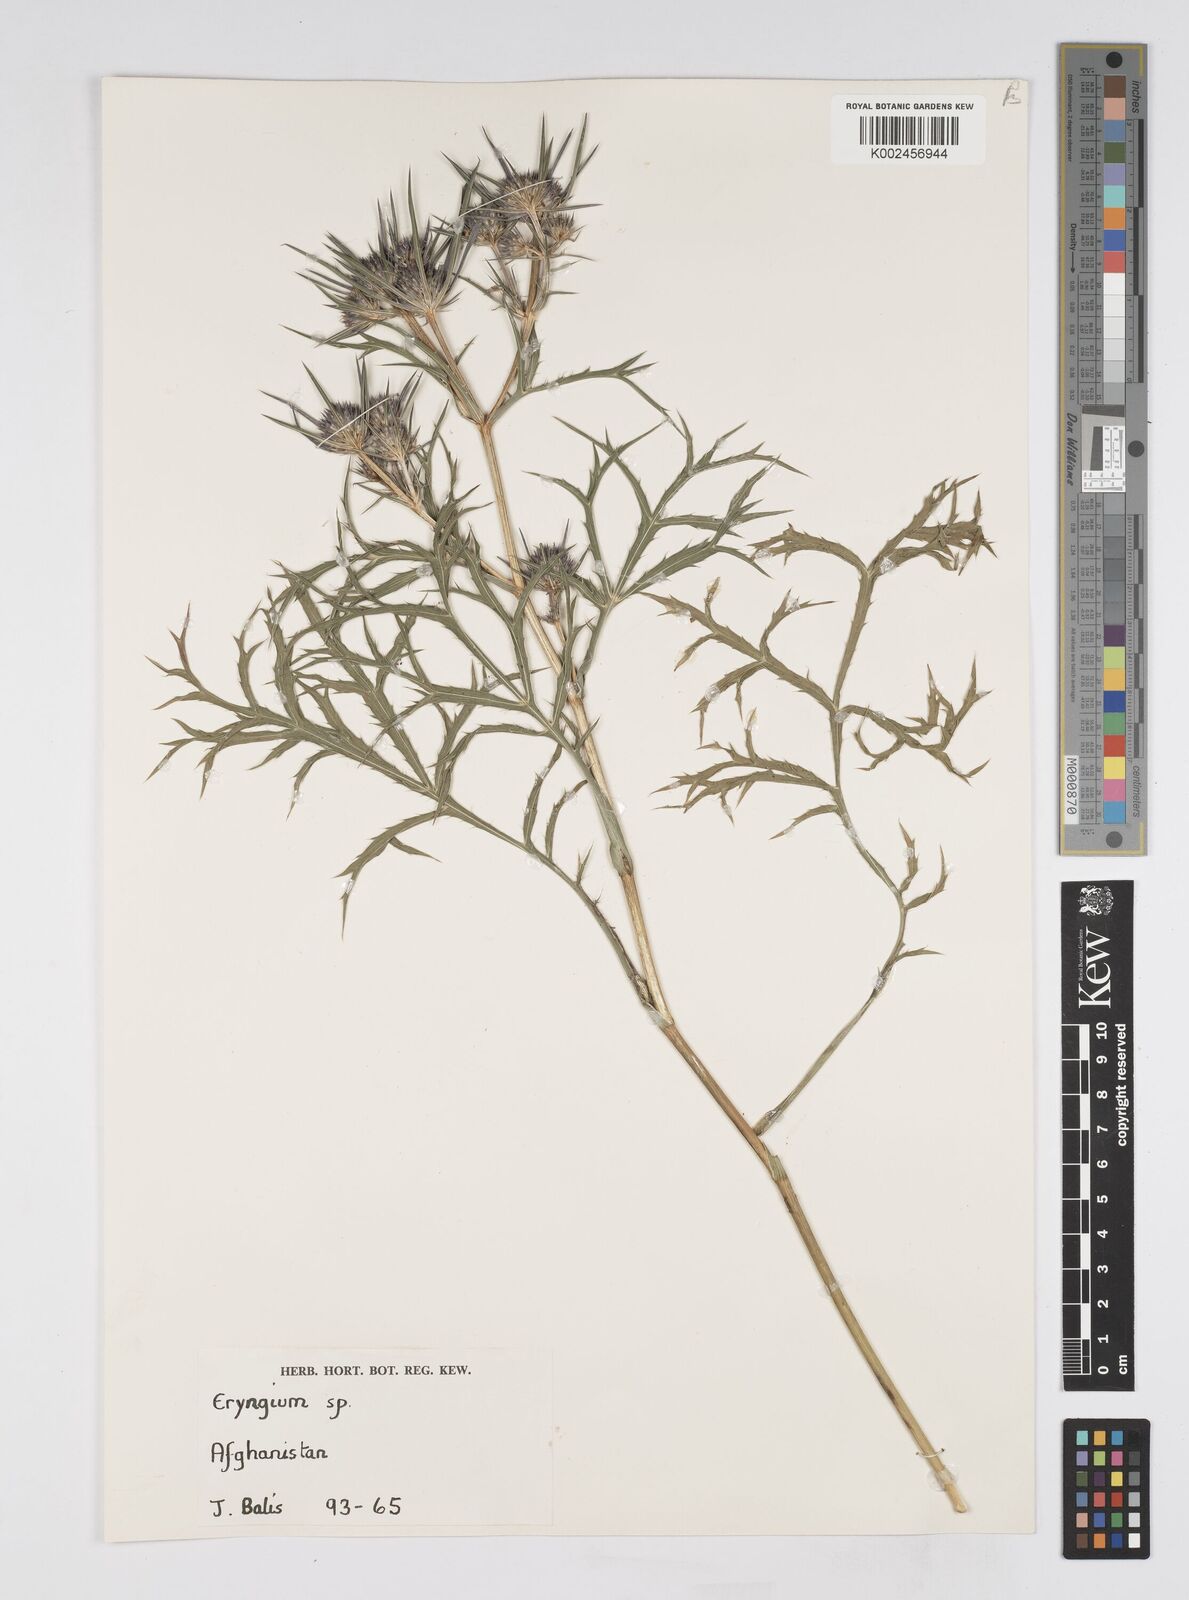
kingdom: Plantae
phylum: Tracheophyta
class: Magnoliopsida
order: Apiales
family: Apiaceae
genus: Eryngium
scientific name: Eryngium
